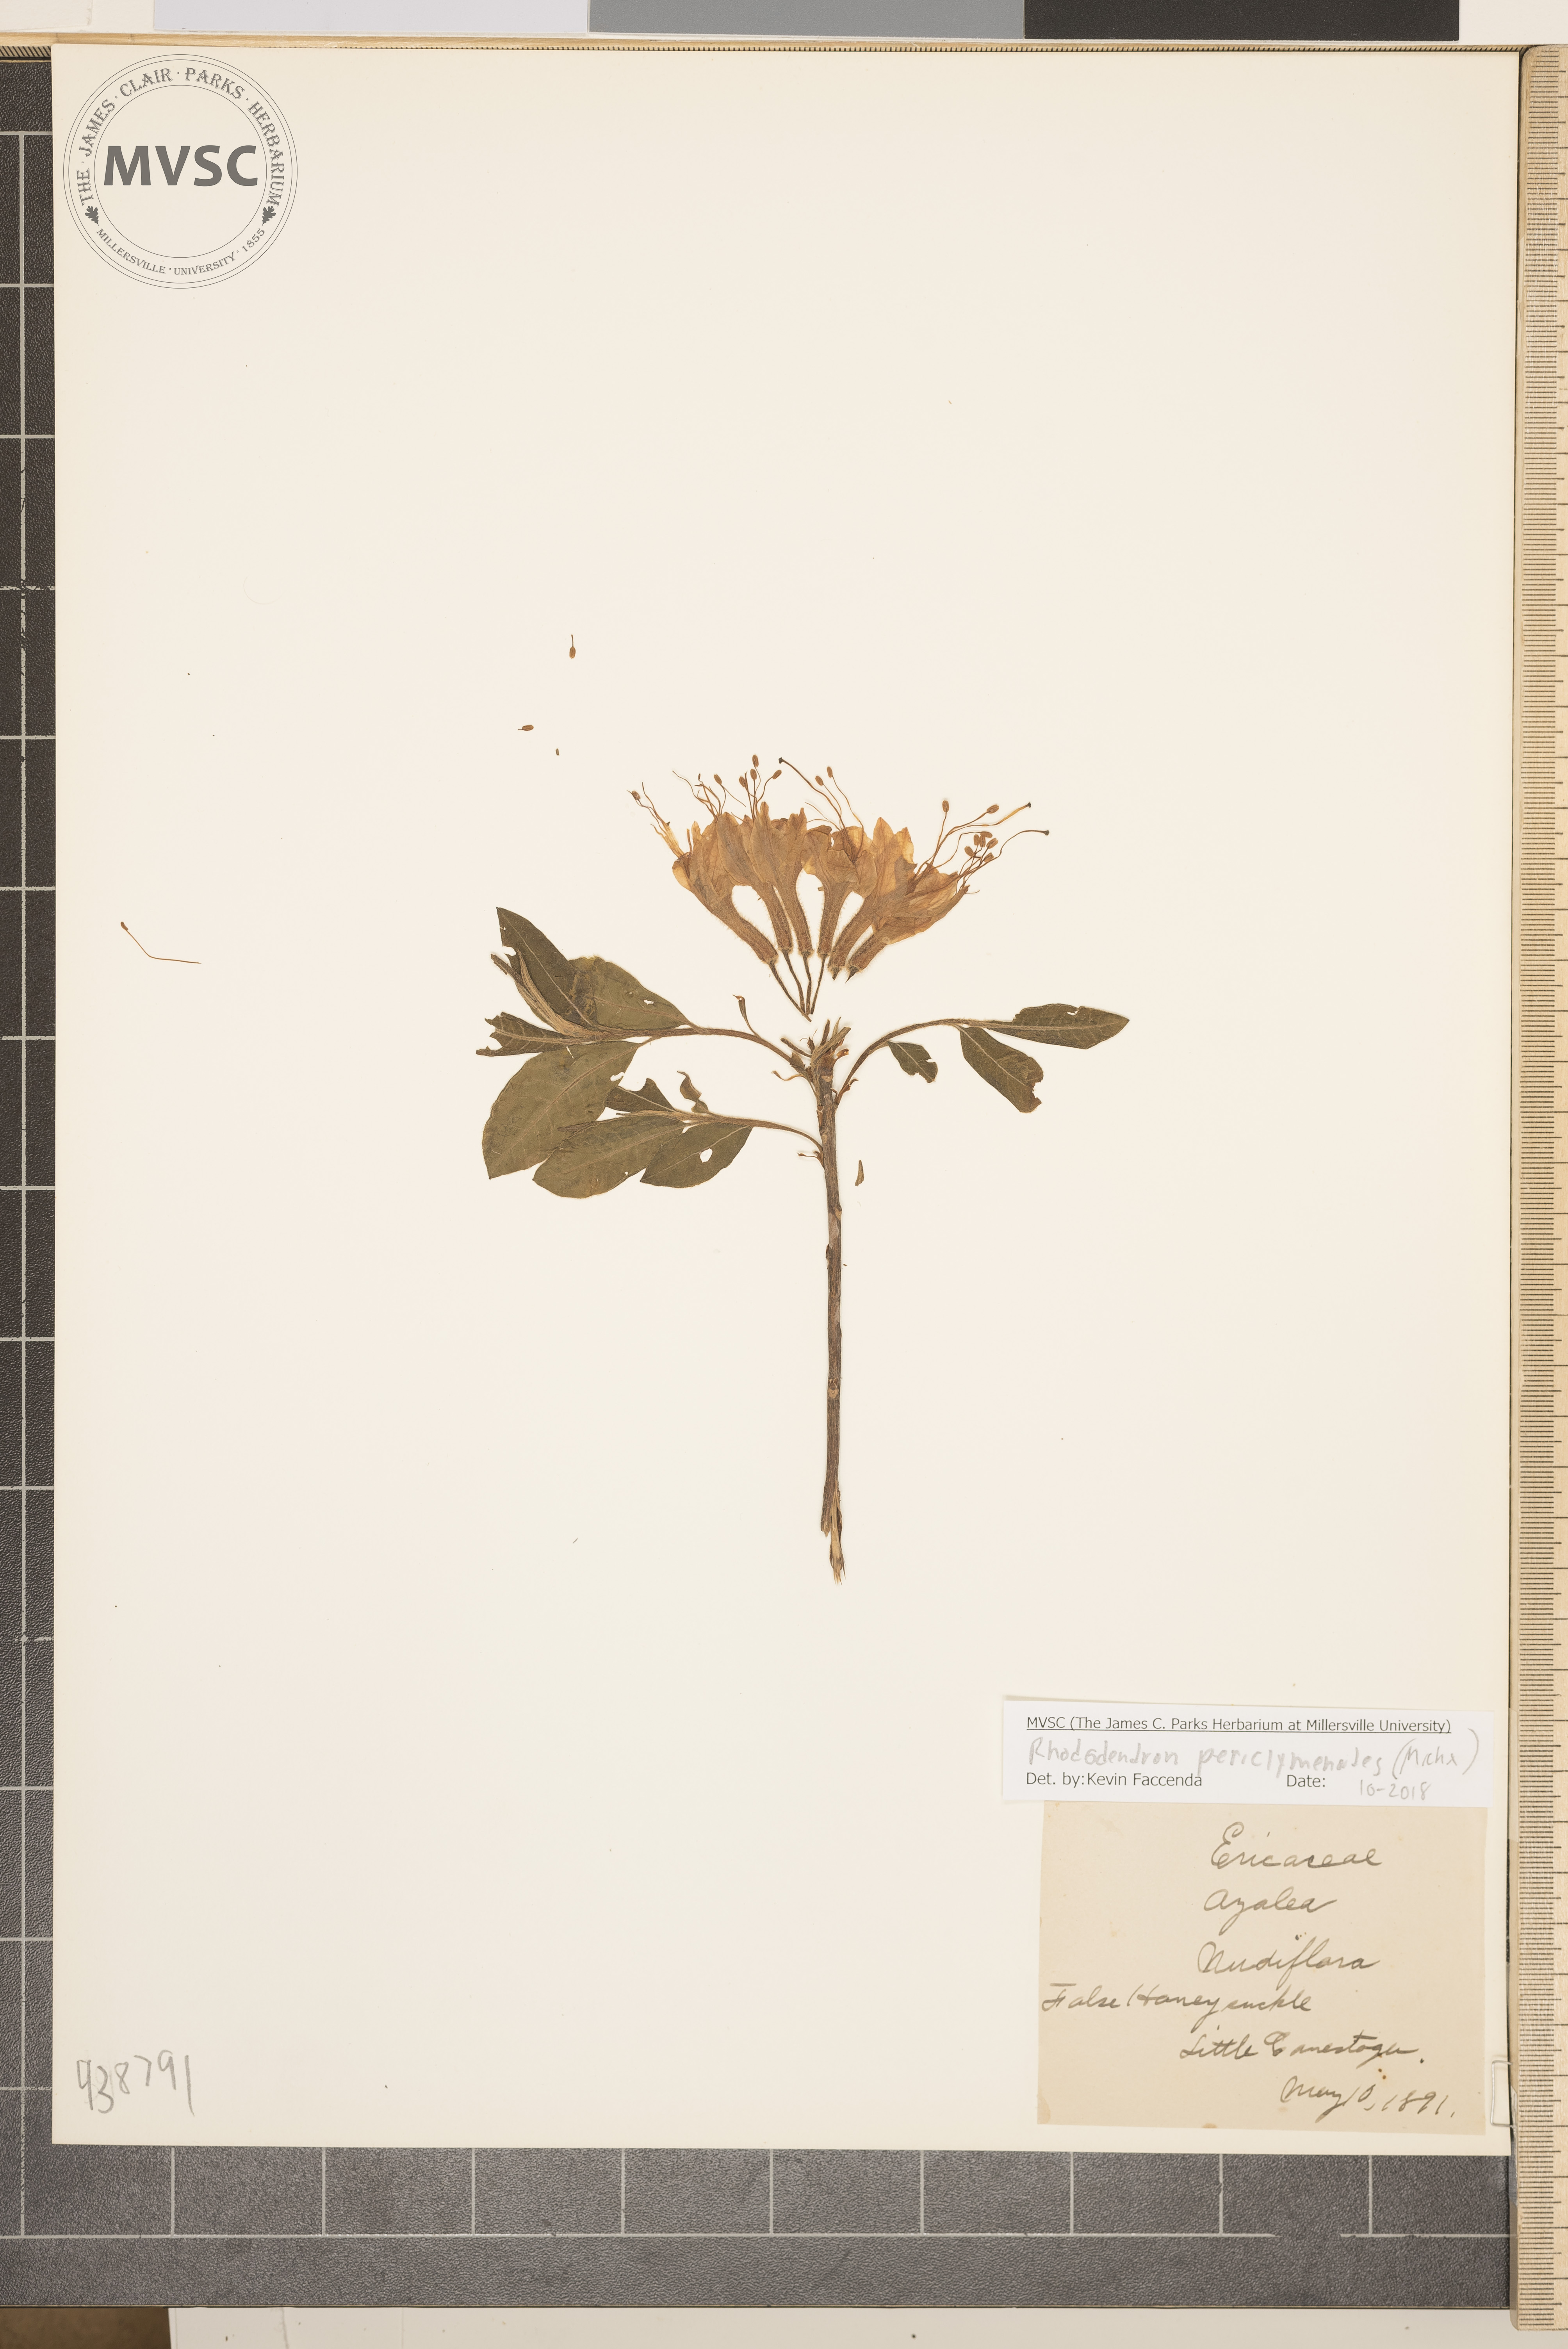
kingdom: Plantae
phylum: Tracheophyta
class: Magnoliopsida
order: Ericales
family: Ericaceae
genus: Rhododendron
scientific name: Rhododendron periclymenoides
